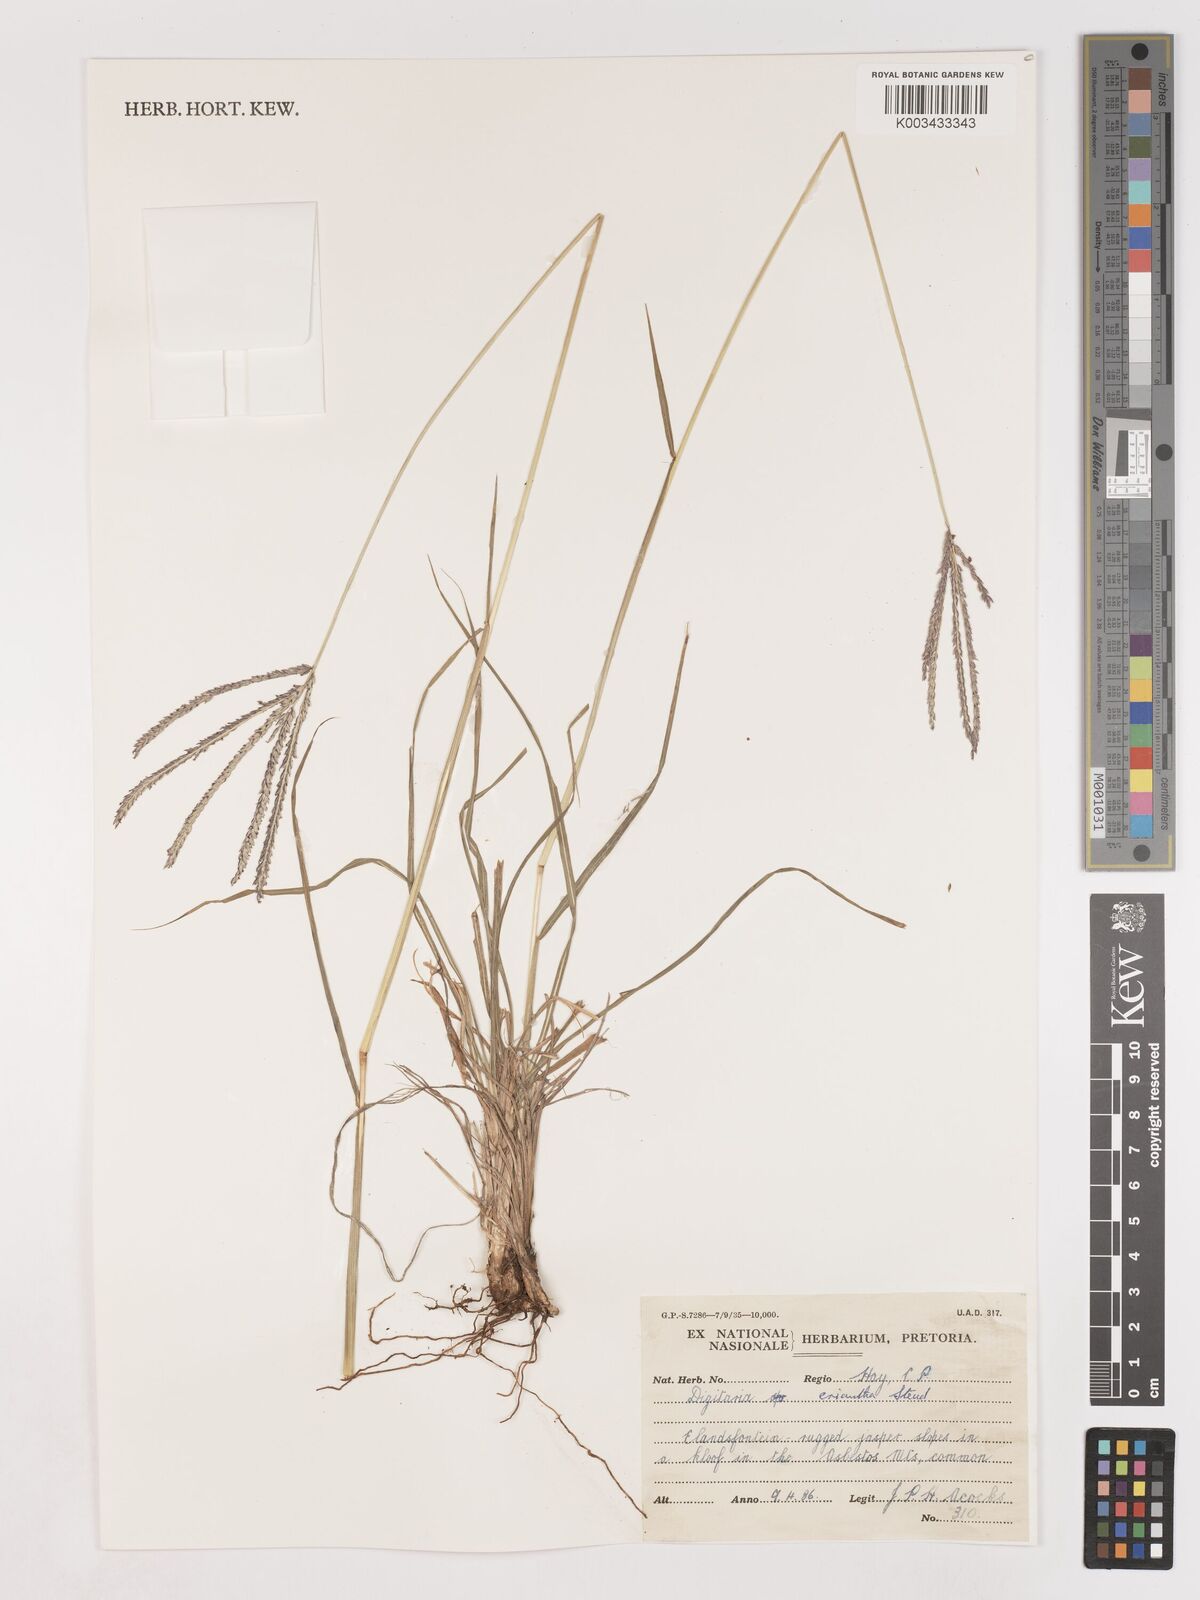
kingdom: Plantae
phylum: Tracheophyta
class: Liliopsida
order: Poales
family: Poaceae
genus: Digitaria
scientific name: Digitaria eriantha
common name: Digitgrass
